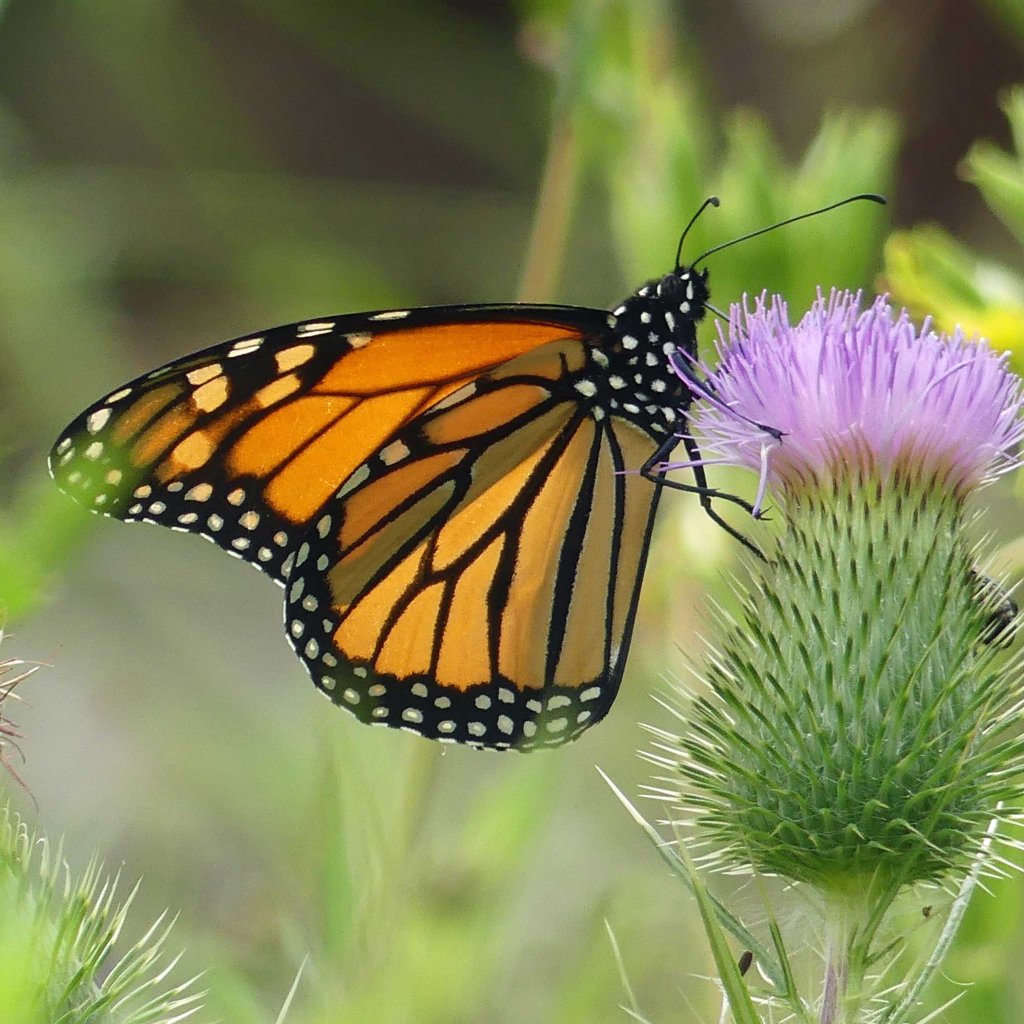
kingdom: Animalia
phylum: Arthropoda
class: Insecta
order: Lepidoptera
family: Nymphalidae
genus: Danaus
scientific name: Danaus plexippus
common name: Monarch
